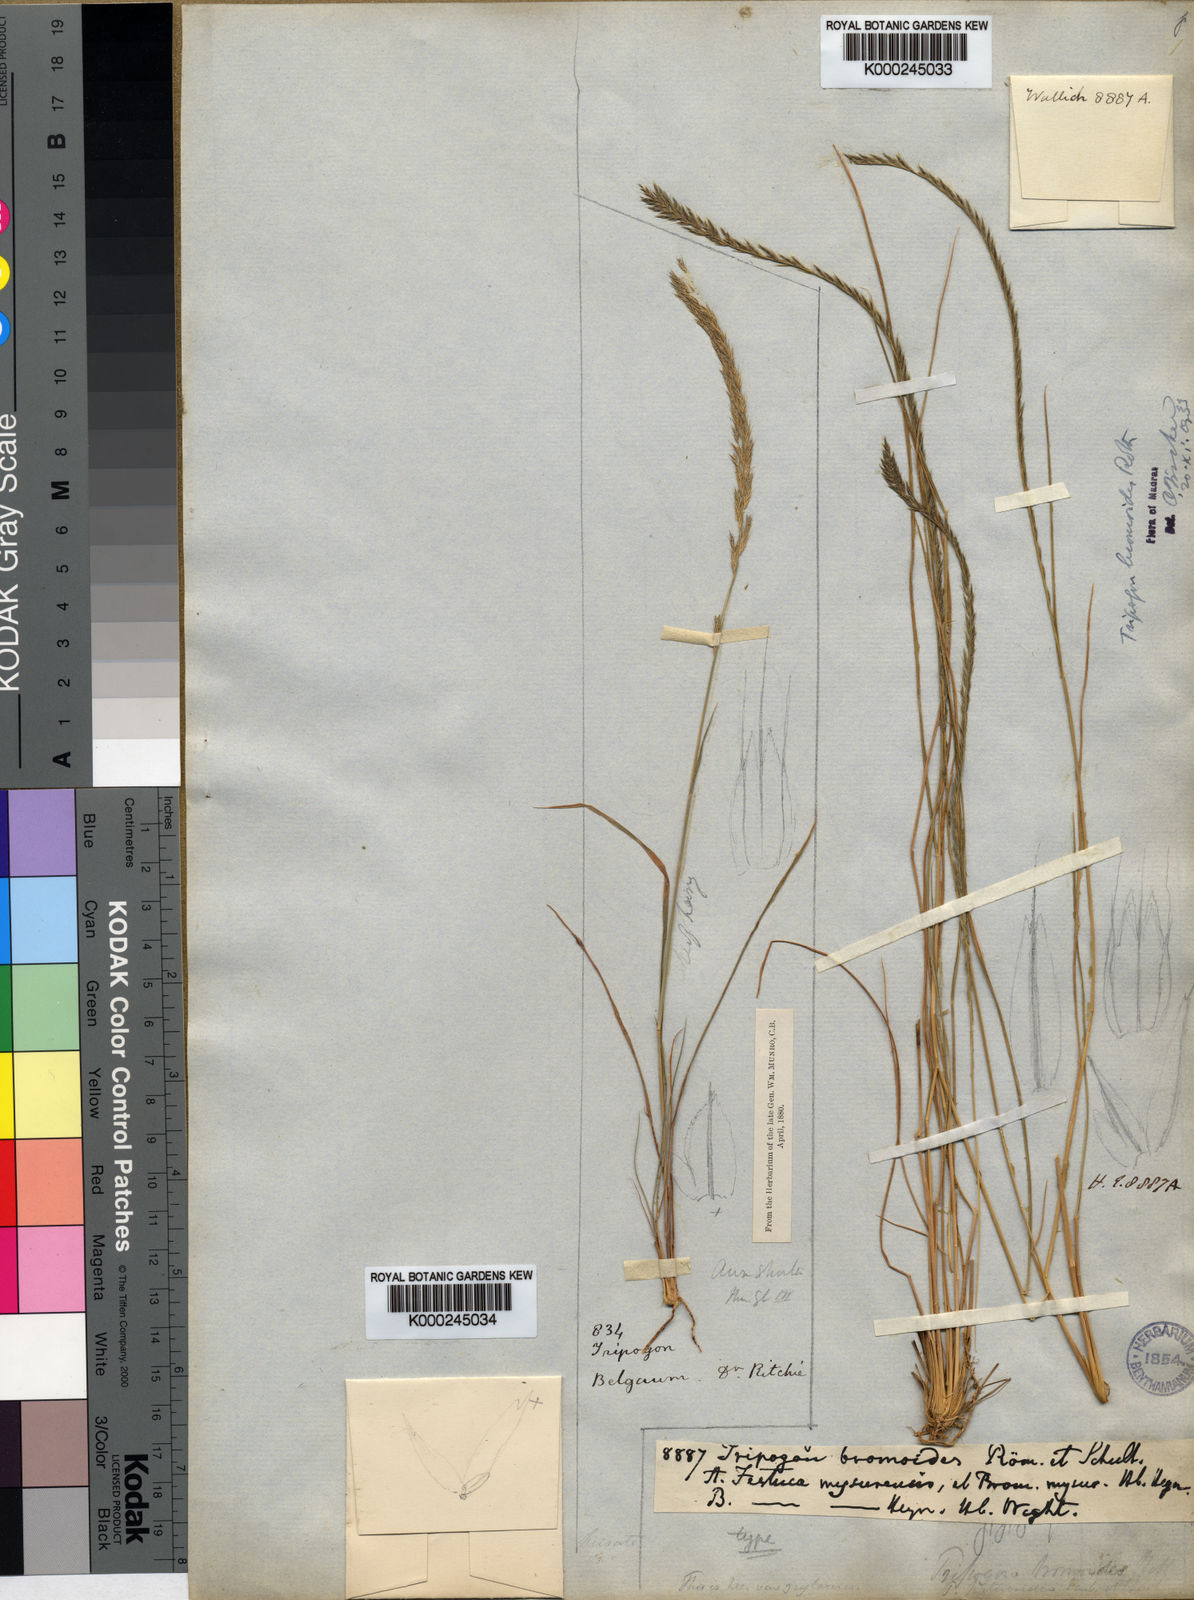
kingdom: Plantae
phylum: Tracheophyta
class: Liliopsida
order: Poales
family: Poaceae
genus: Tripogon
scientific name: Tripogon
